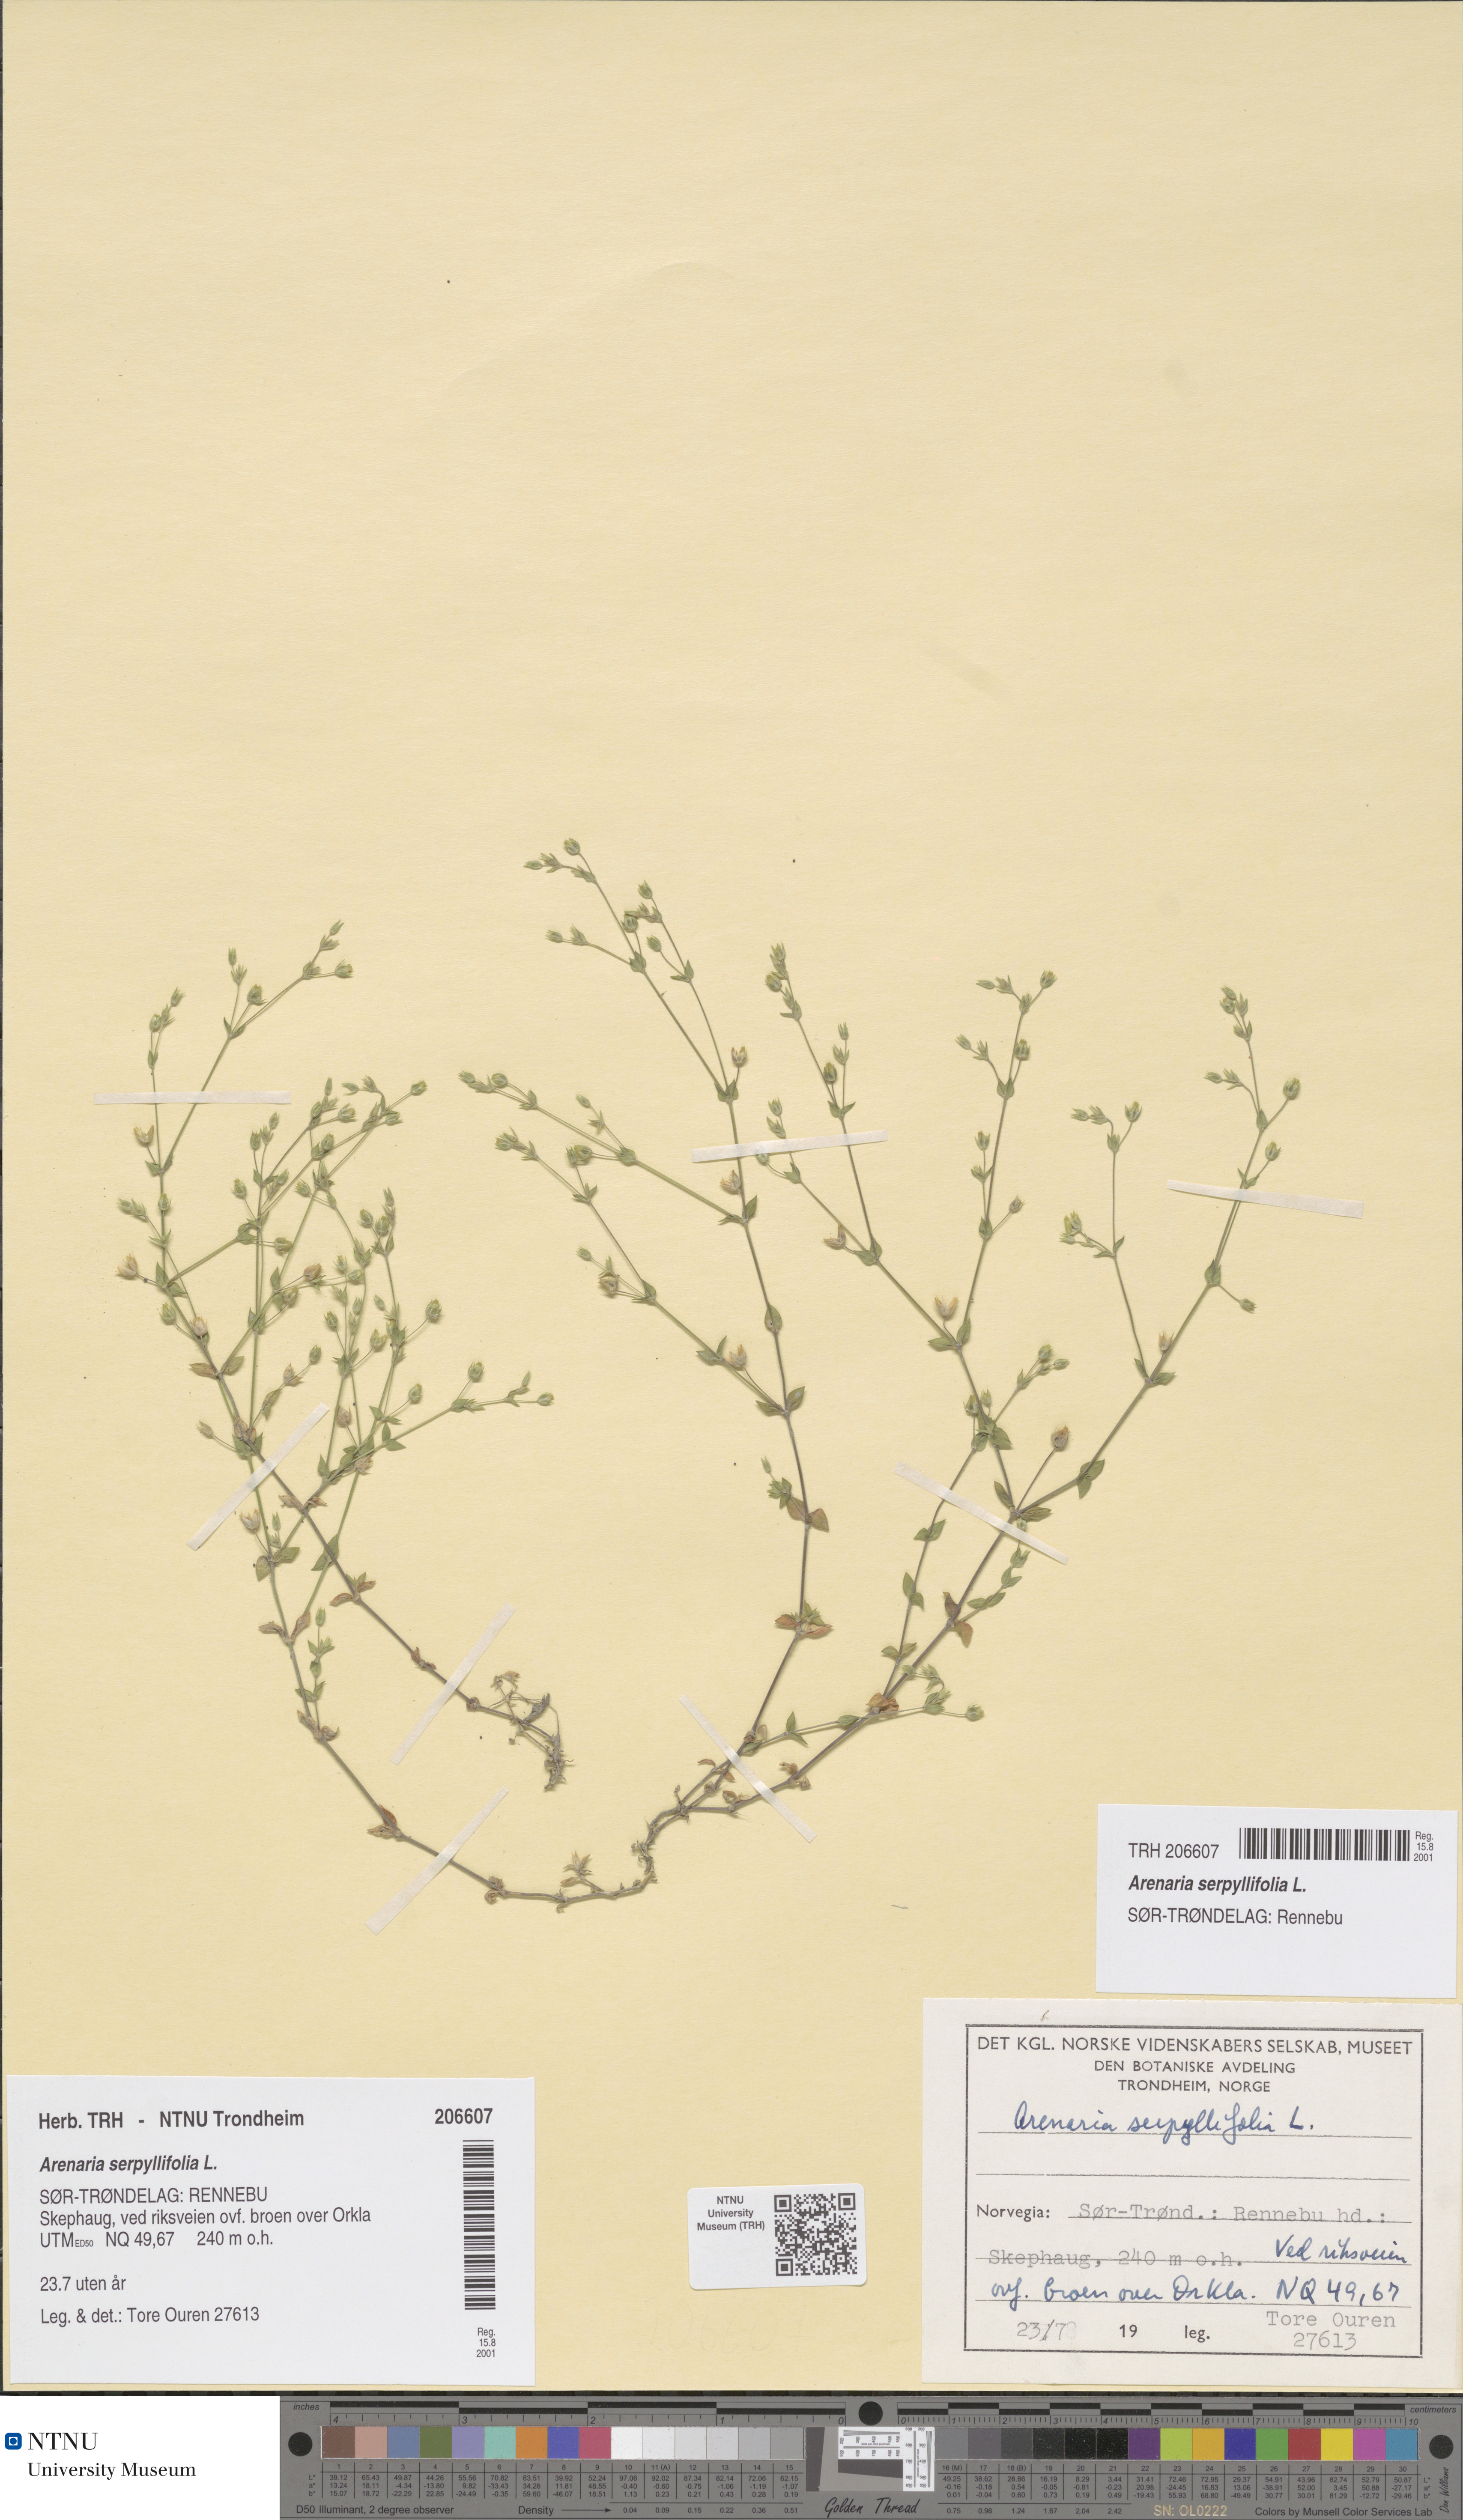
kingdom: Plantae
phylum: Tracheophyta
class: Magnoliopsida
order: Caryophyllales
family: Caryophyllaceae
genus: Arenaria
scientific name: Arenaria serpyllifolia
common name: Thyme-leaved sandwort
